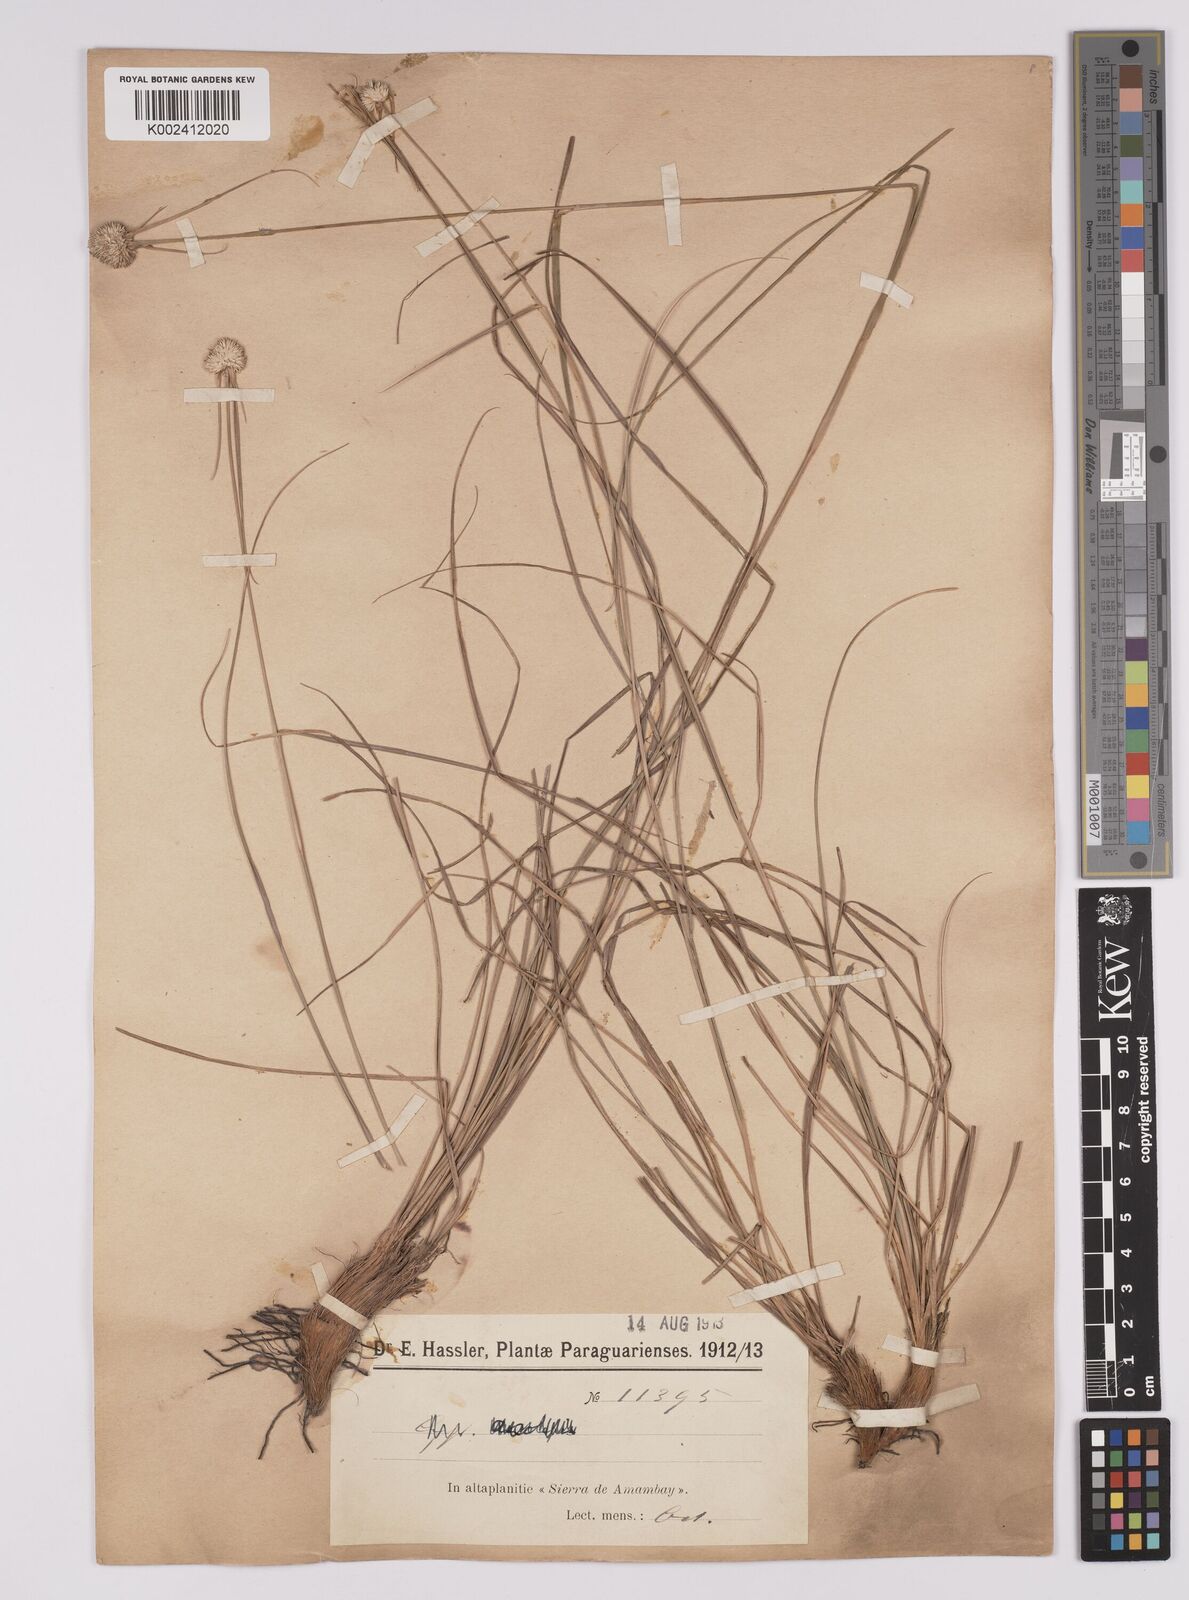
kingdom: Plantae
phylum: Tracheophyta
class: Liliopsida
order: Poales
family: Cyperaceae
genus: Rhynchospora
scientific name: Rhynchospora setigera
